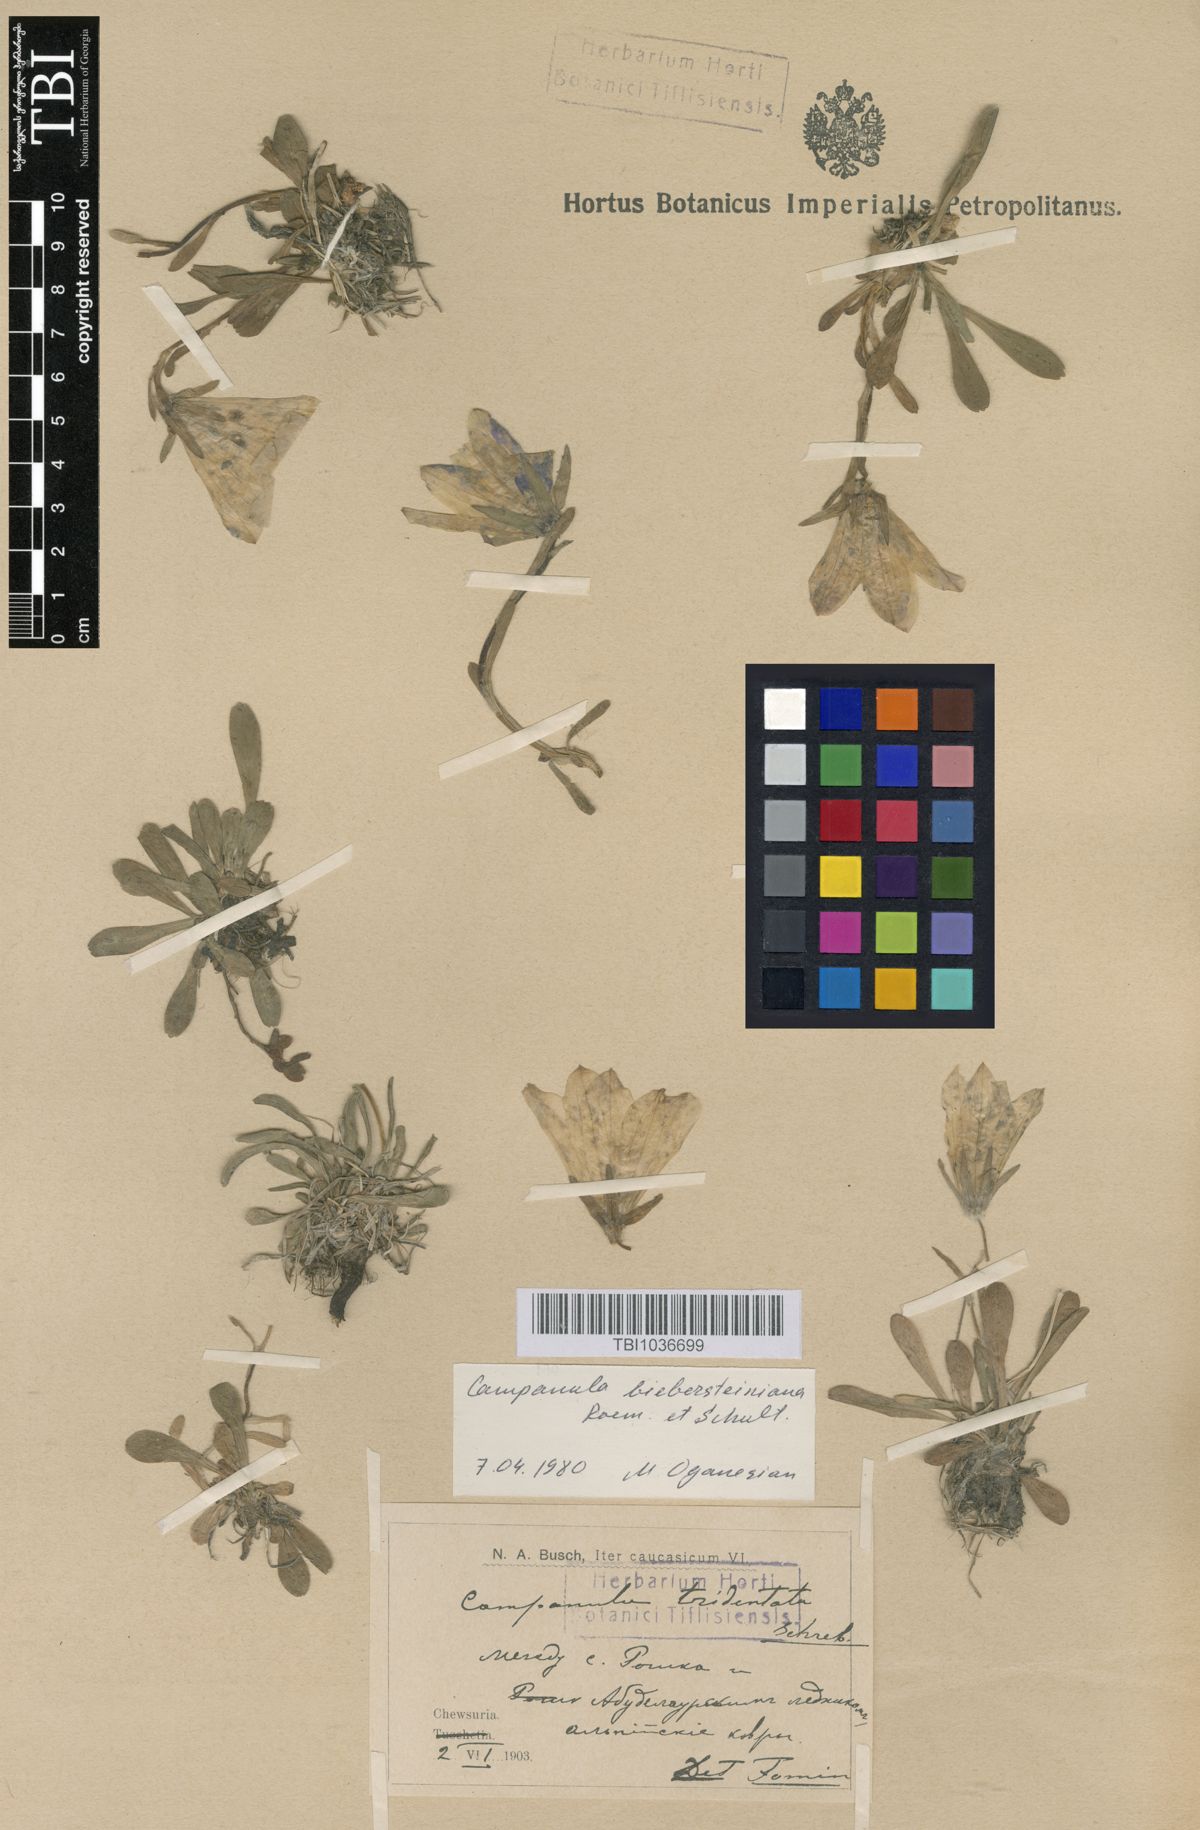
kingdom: Plantae
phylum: Tracheophyta
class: Magnoliopsida
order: Asterales
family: Campanulaceae
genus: Campanula
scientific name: Campanula tridentata
